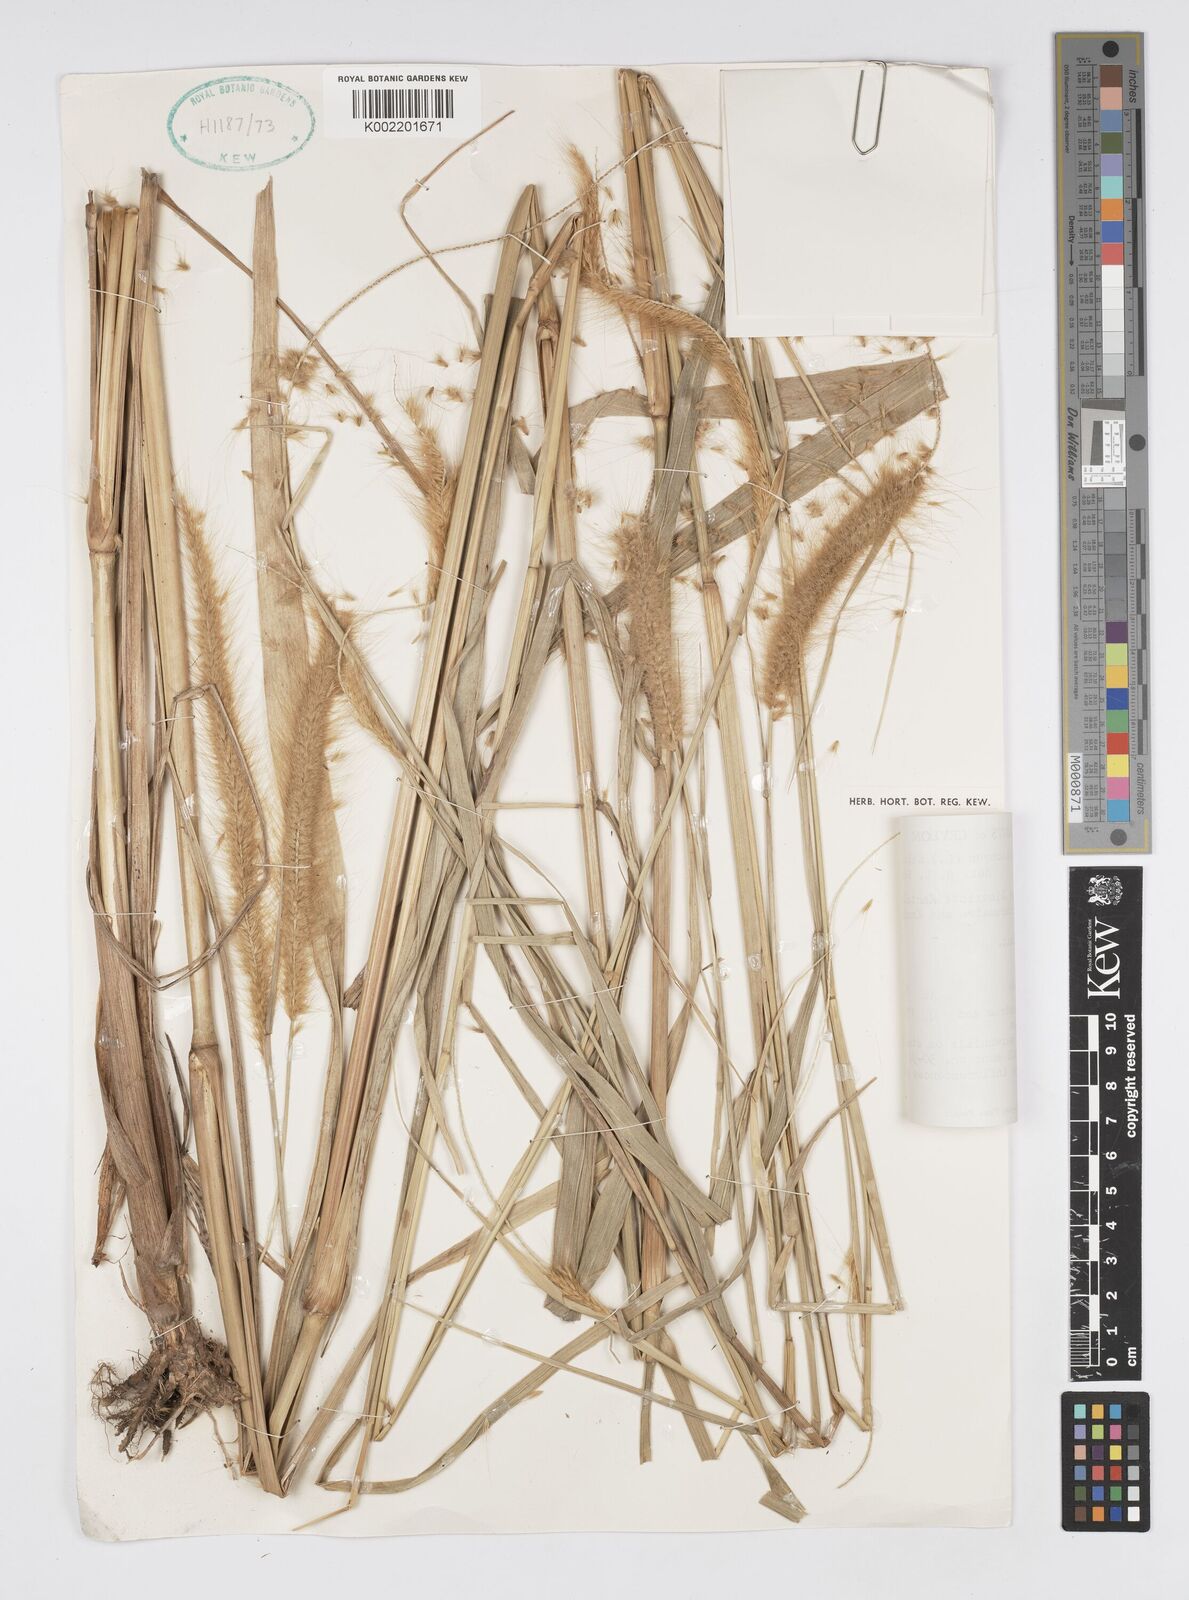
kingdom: Plantae
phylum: Tracheophyta
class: Liliopsida
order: Poales
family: Poaceae
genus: Setaria
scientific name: Setaria parviflora
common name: Knotroot bristle-grass
